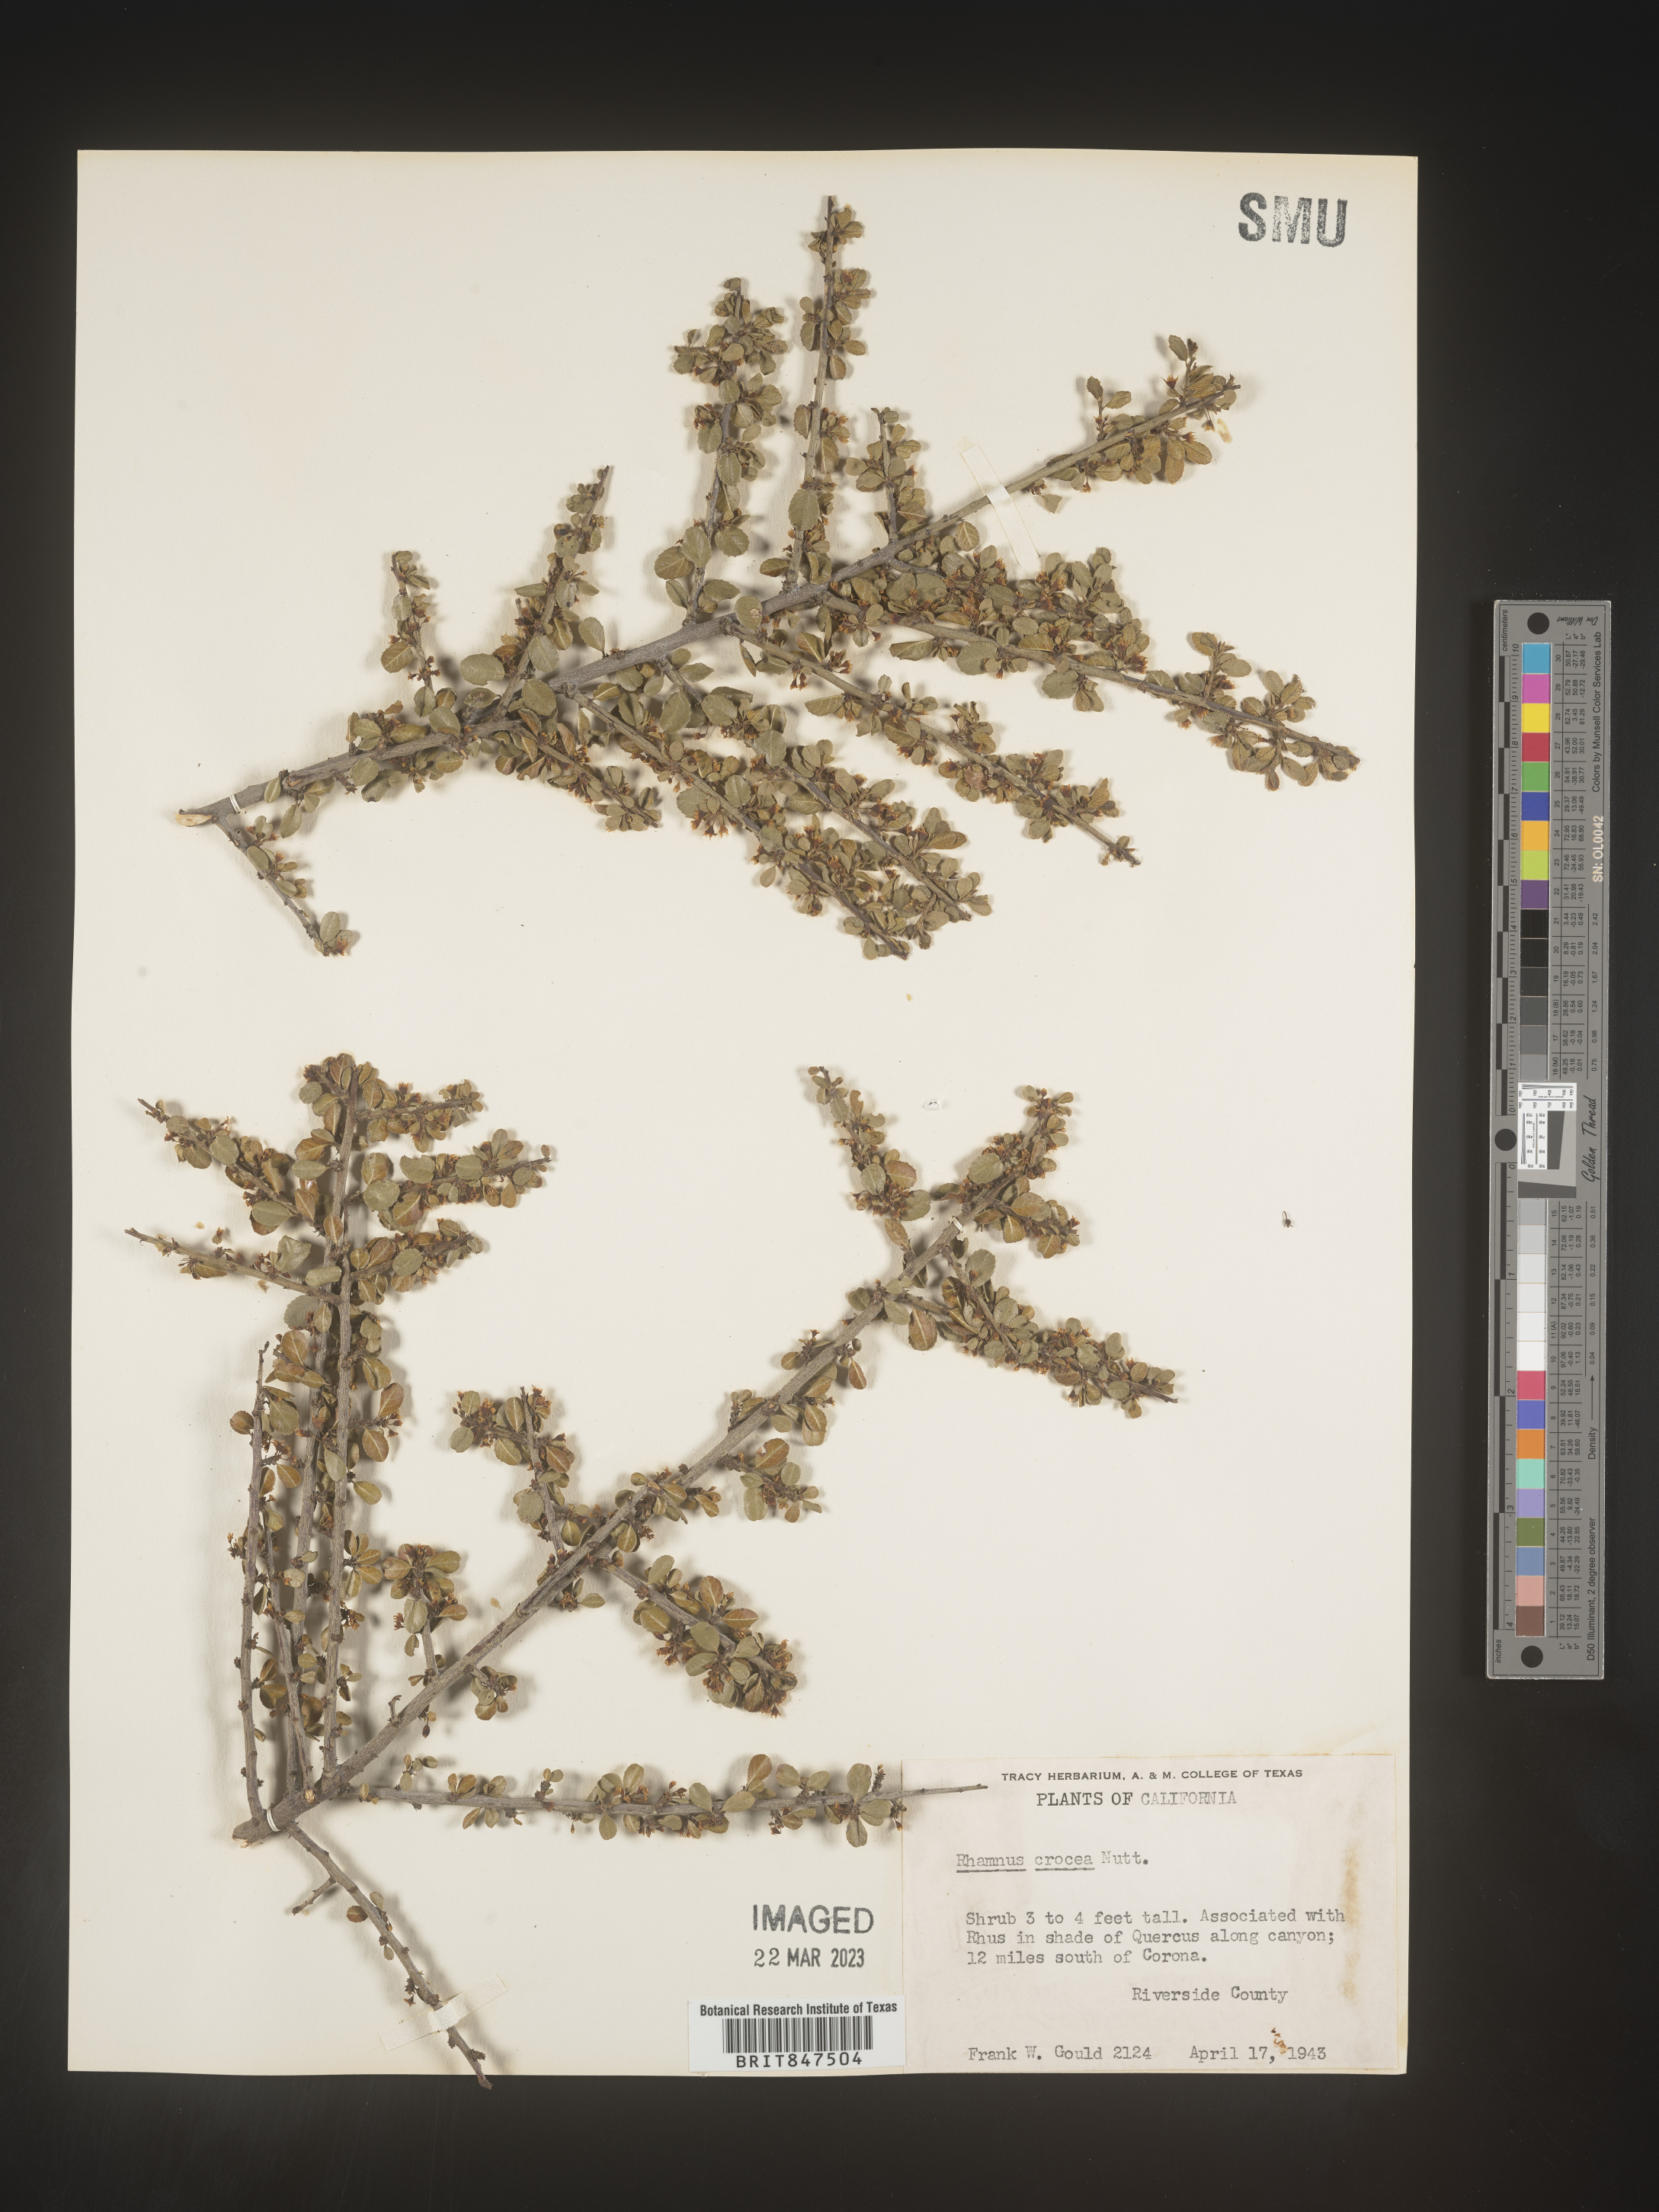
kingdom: Plantae
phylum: Tracheophyta
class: Magnoliopsida
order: Rosales
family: Rhamnaceae
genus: Endotropis
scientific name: Endotropis crocea
